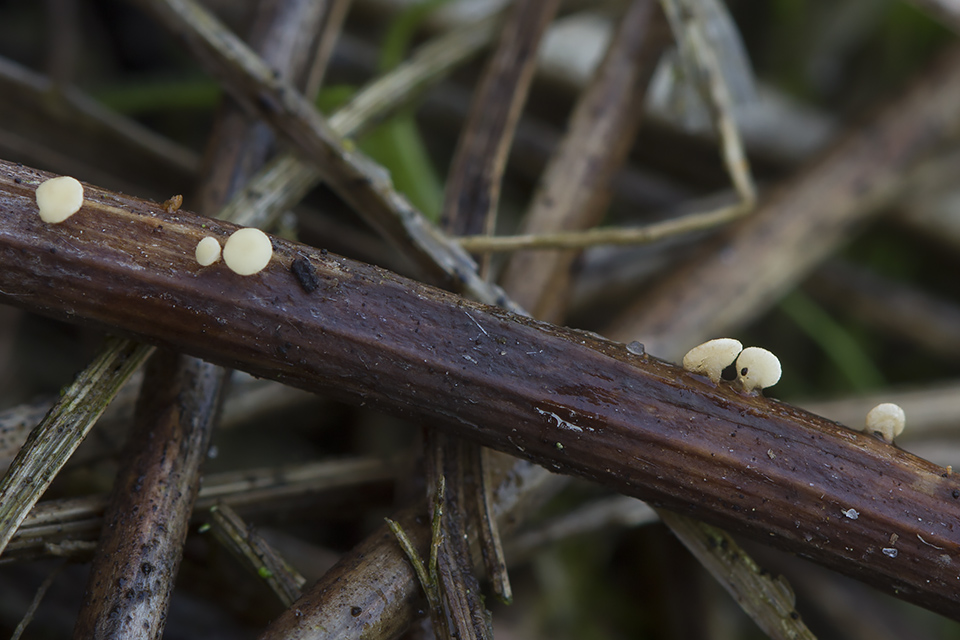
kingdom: Fungi
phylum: Ascomycota
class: Leotiomycetes
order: Helotiales
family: Helotiaceae
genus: Hymenoscyphus
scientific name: Hymenoscyphus scutula
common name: almindelig stilkskive
